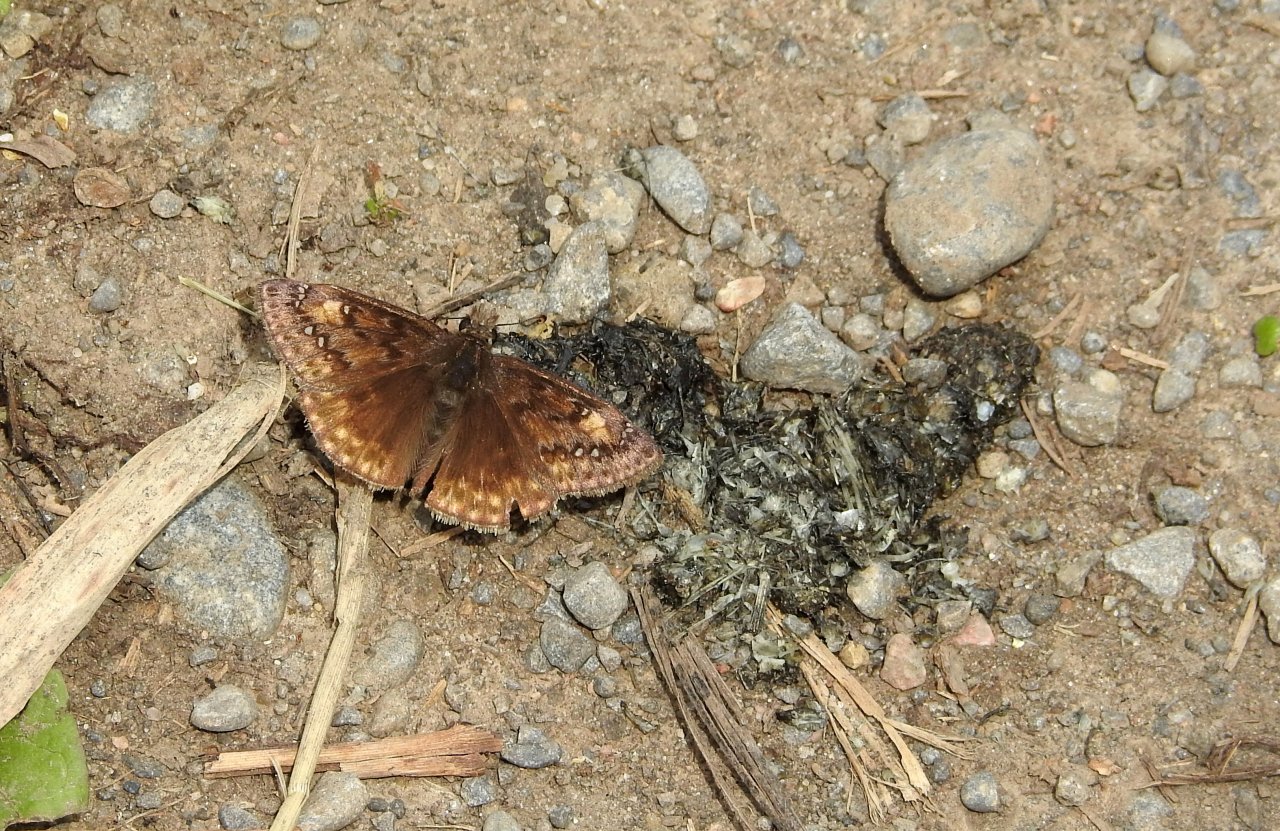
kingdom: Animalia
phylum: Arthropoda
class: Insecta
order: Lepidoptera
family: Hesperiidae
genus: Gesta
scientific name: Gesta
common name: Juvenal's Duskywing
